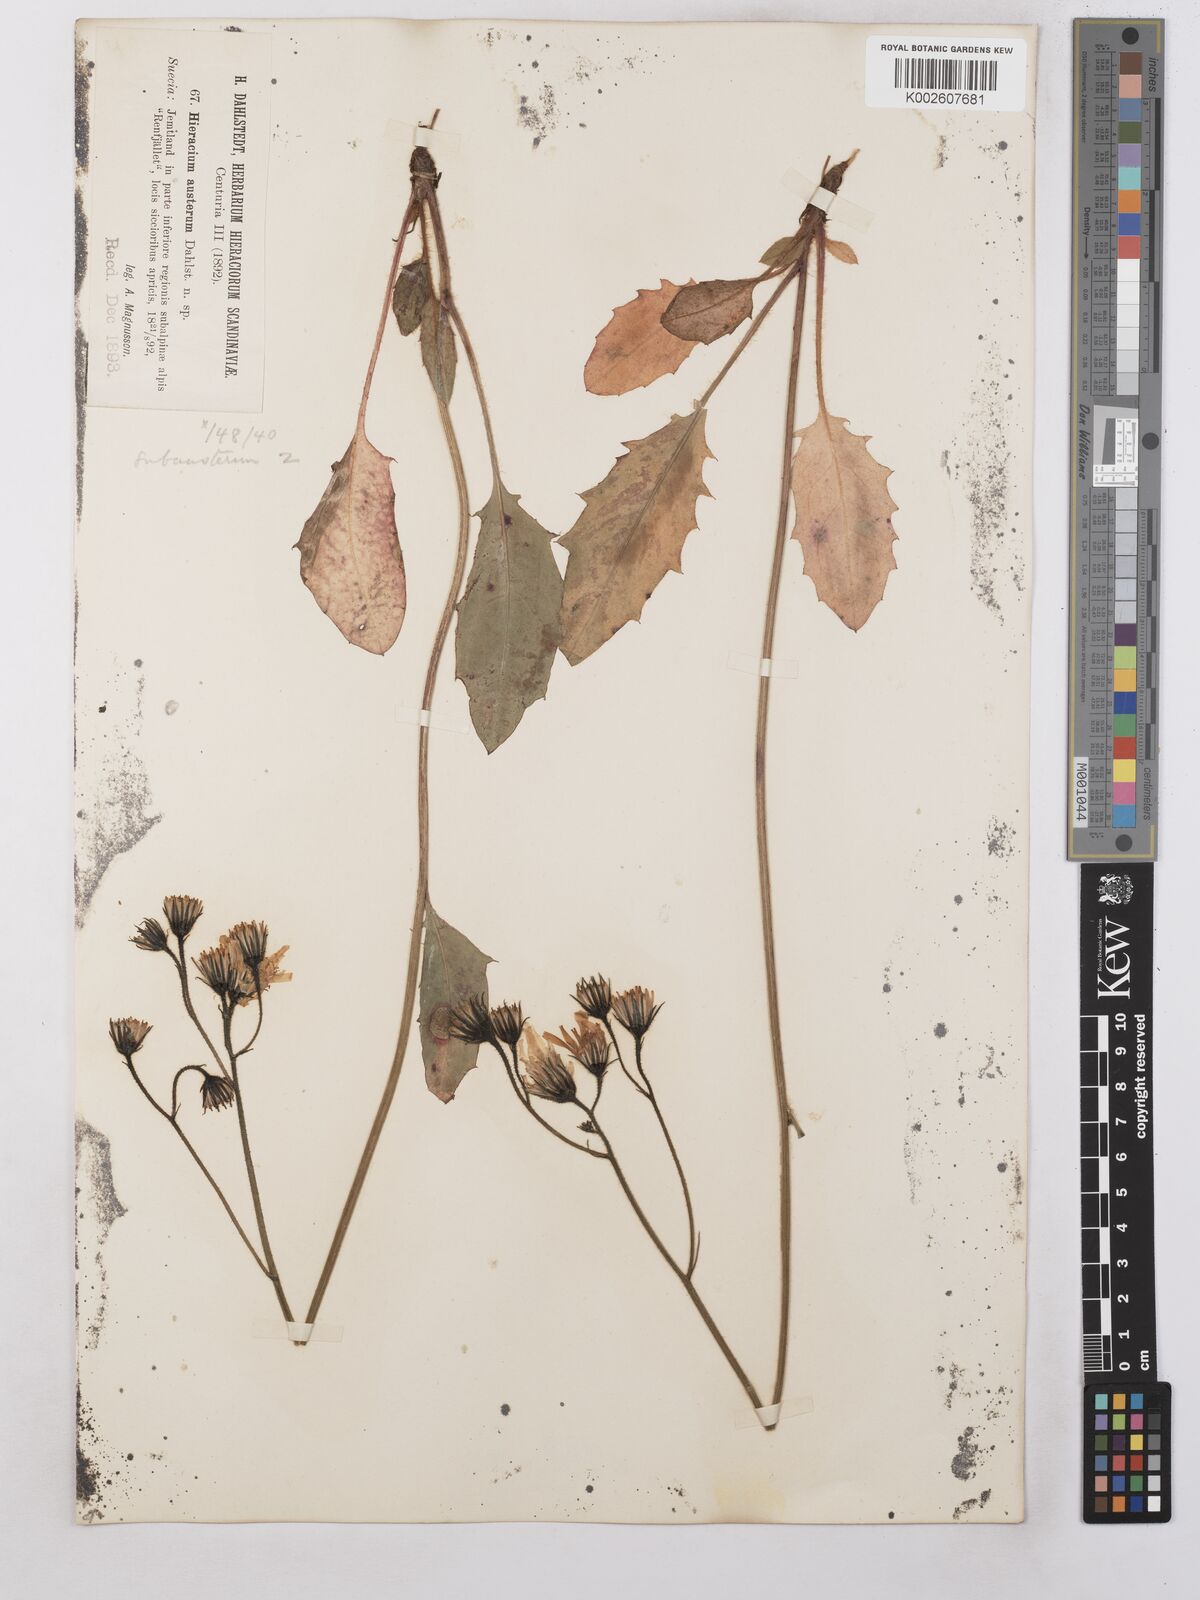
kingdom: Plantae
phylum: Tracheophyta
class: Magnoliopsida
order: Asterales
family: Asteraceae
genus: Hieracium
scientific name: Hieracium subramosum
